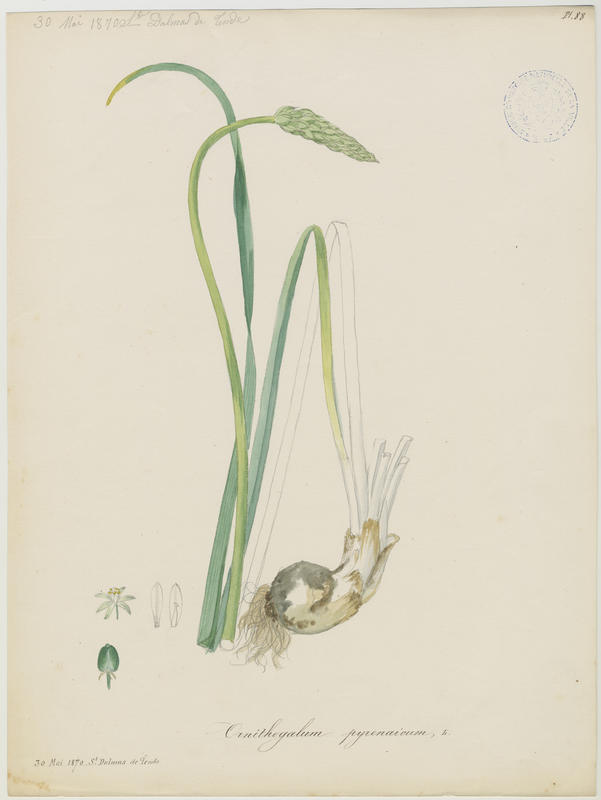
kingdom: Plantae
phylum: Tracheophyta
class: Liliopsida
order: Asparagales
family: Asparagaceae
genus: Ornithogalum
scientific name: Ornithogalum pyrenaicum
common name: Spiked star-of-bethlehem
